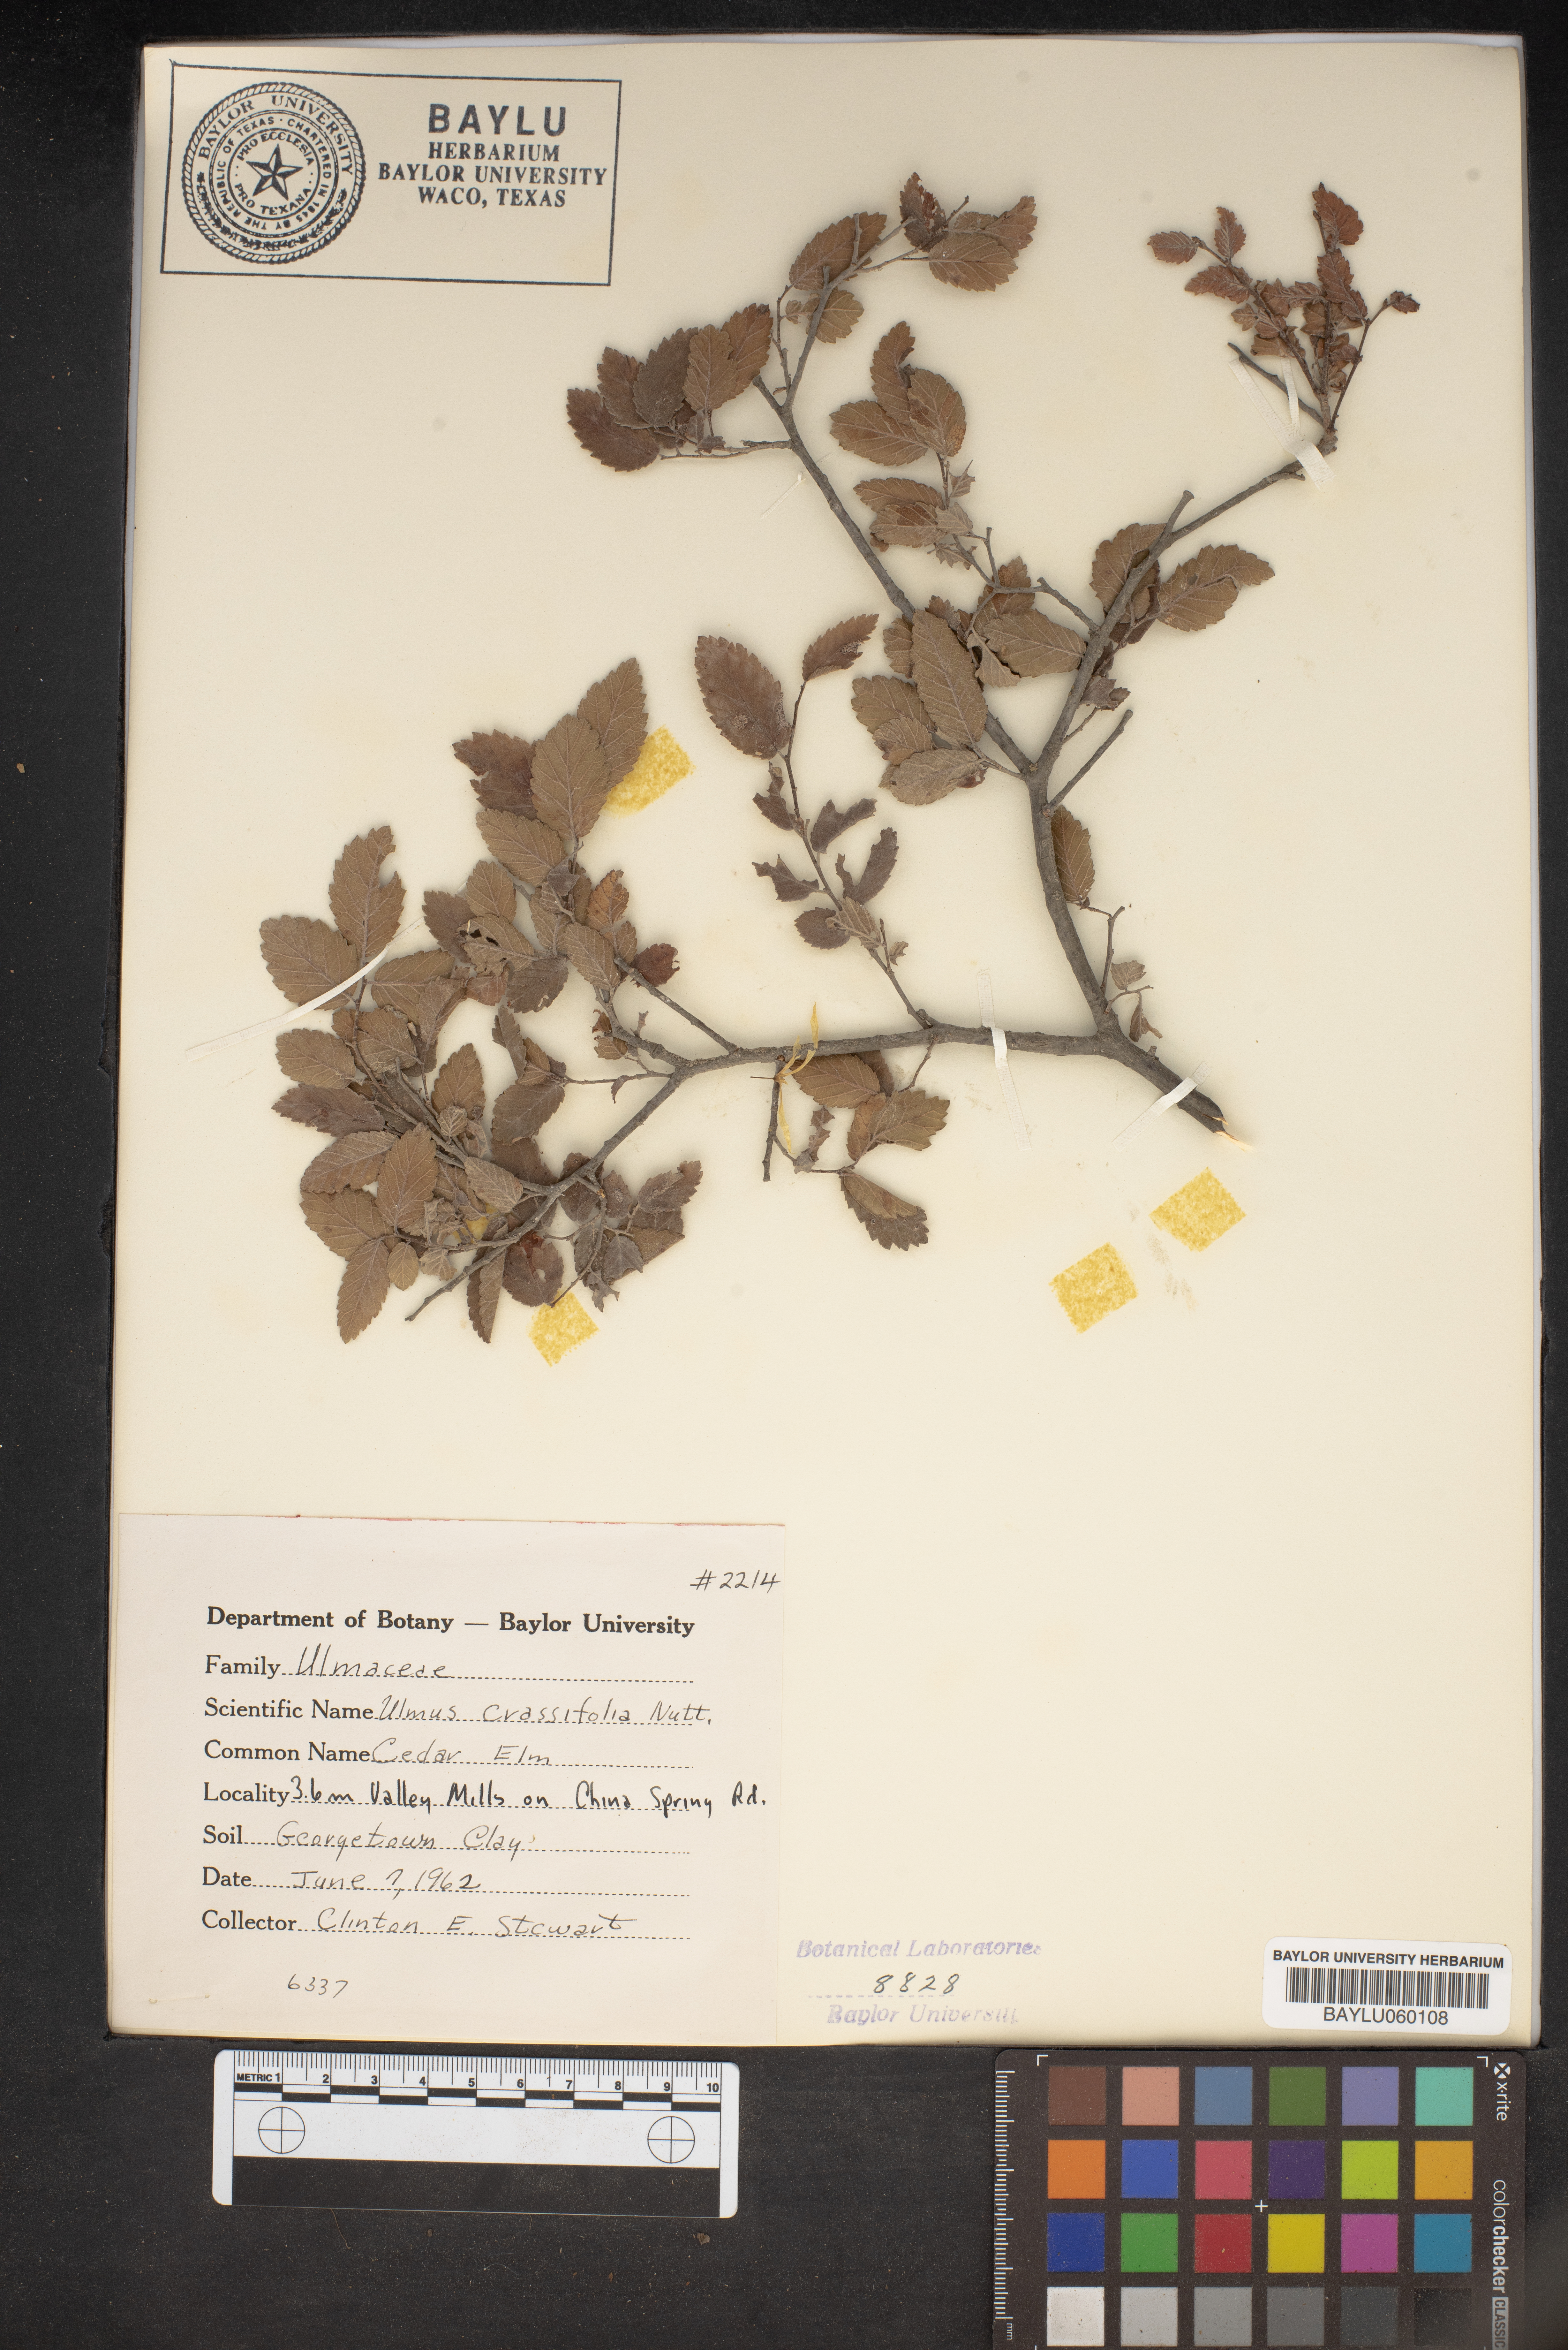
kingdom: Plantae
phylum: Tracheophyta
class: Magnoliopsida
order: Rosales
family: Ulmaceae
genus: Ulmus
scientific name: Ulmus crassifolia
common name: Basket elm
